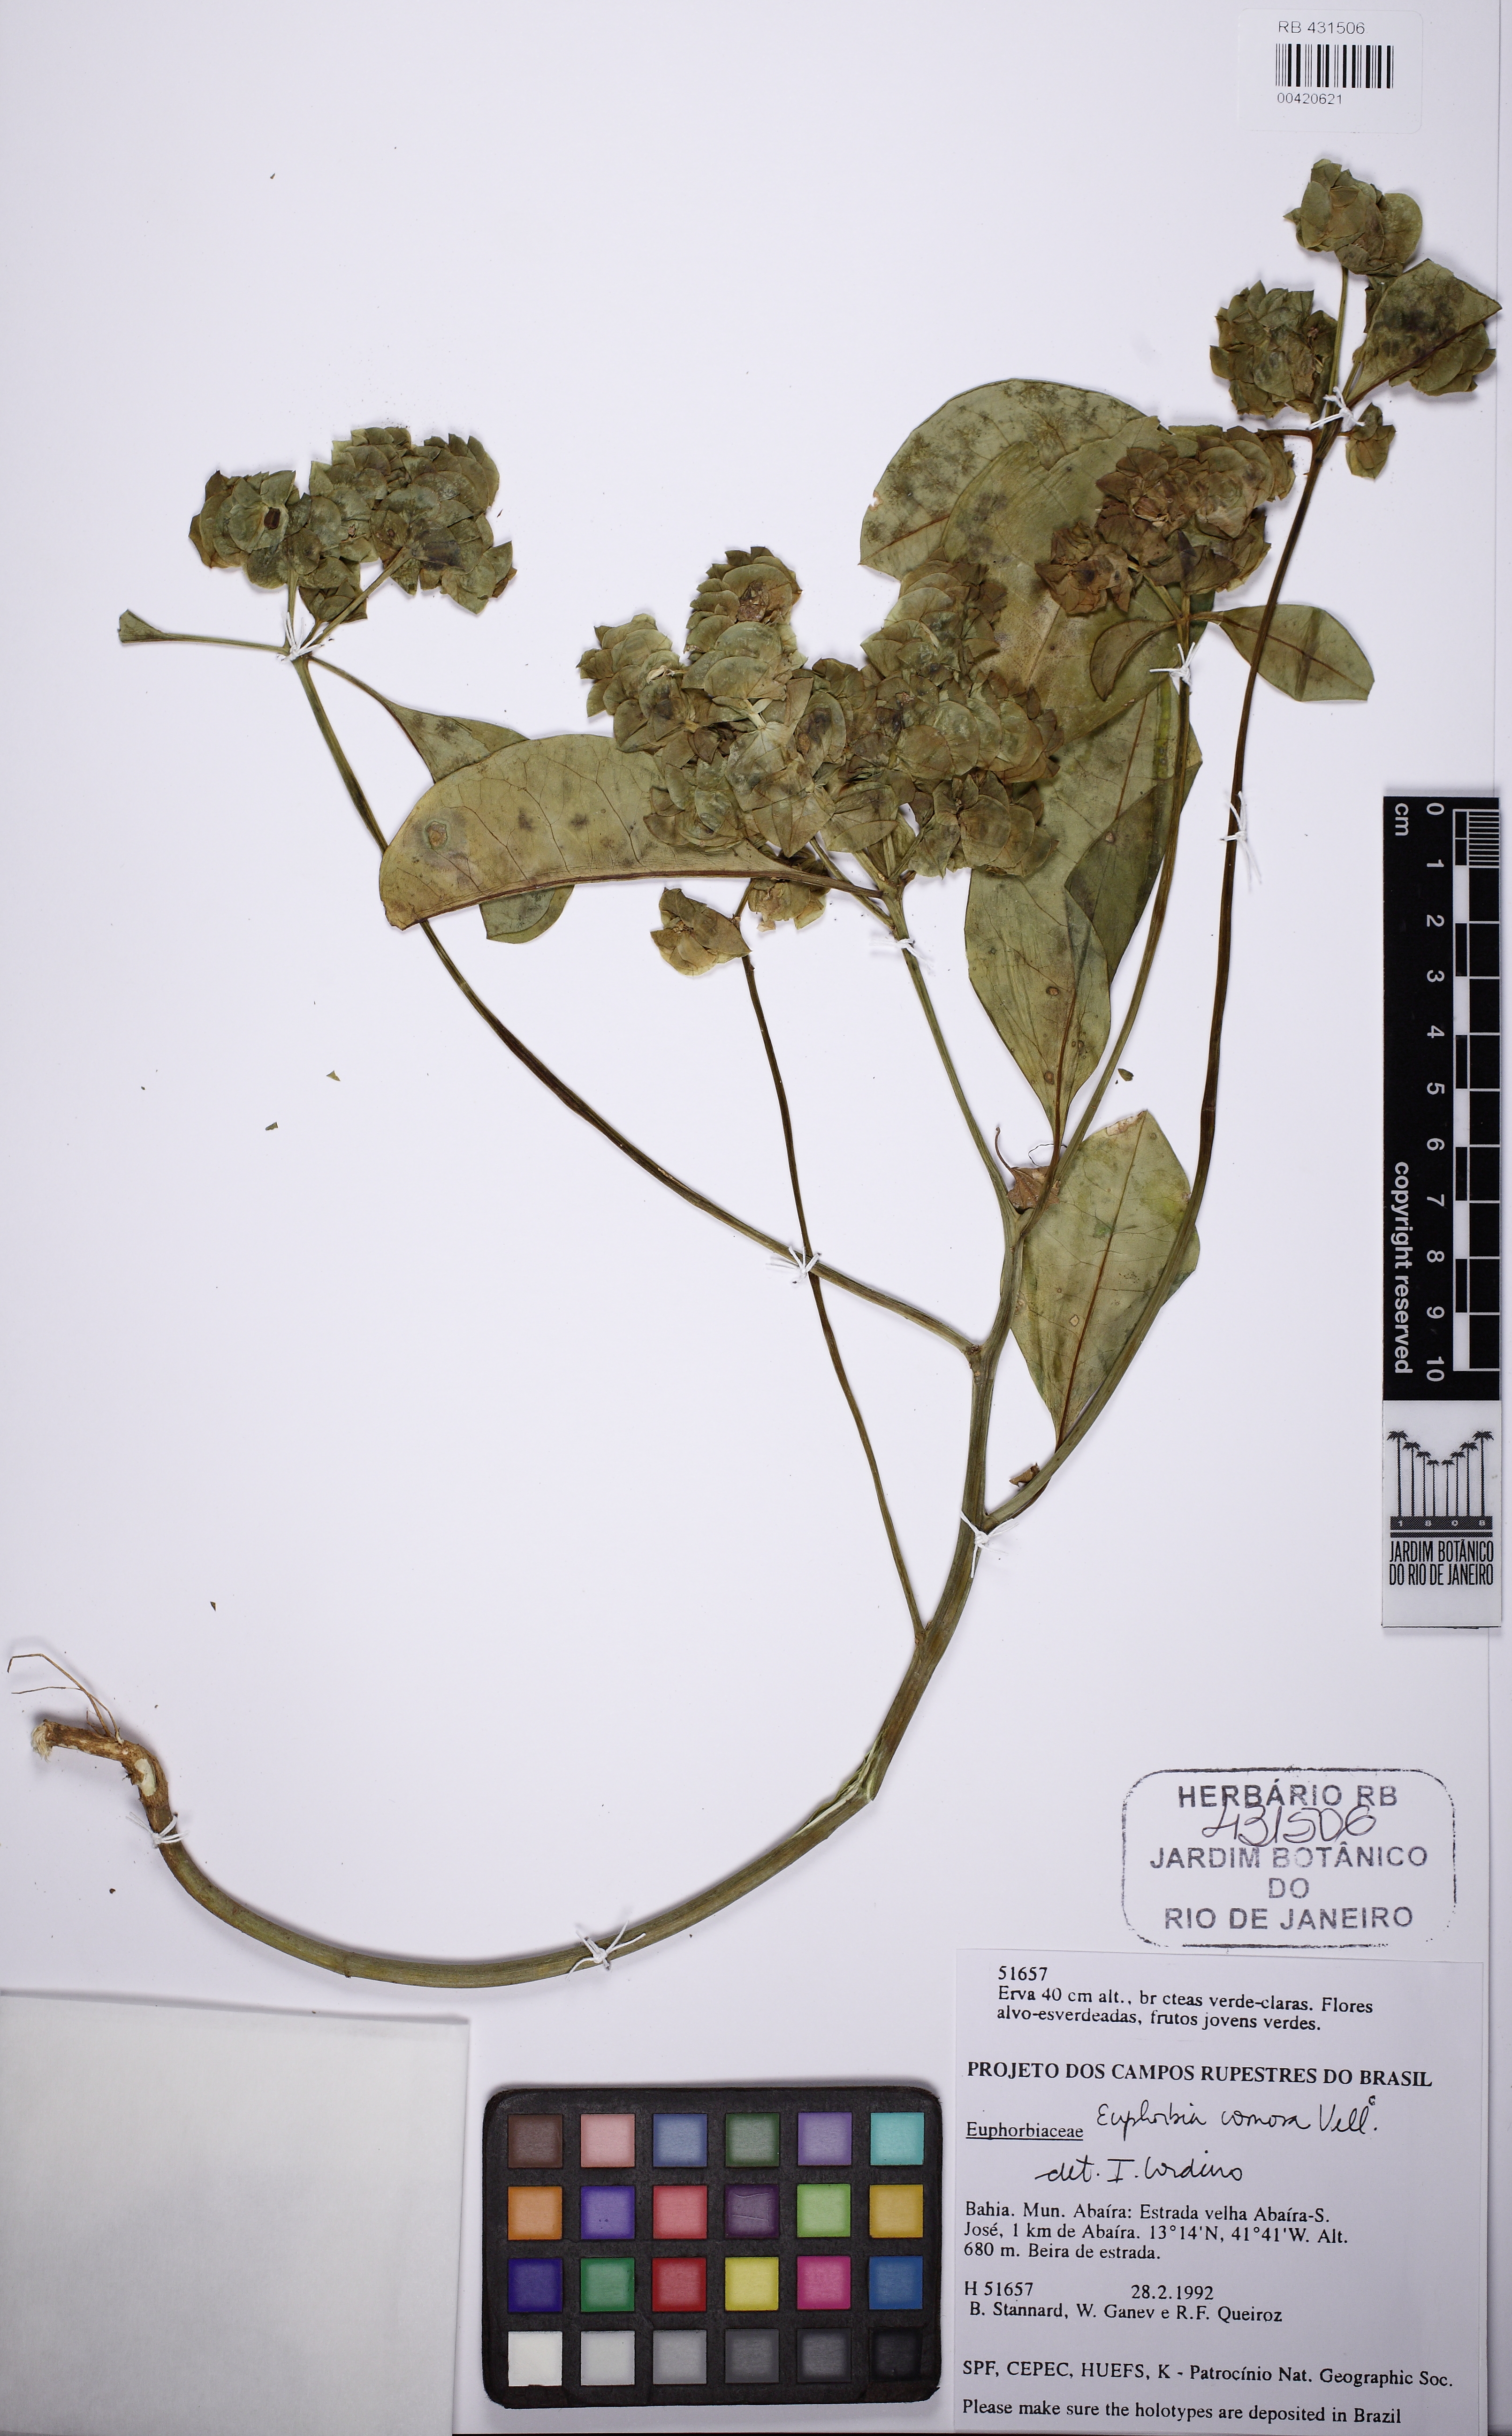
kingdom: Plantae
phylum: Tracheophyta
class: Magnoliopsida
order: Malpighiales
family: Euphorbiaceae
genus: Euphorbia
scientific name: Euphorbia comosa
